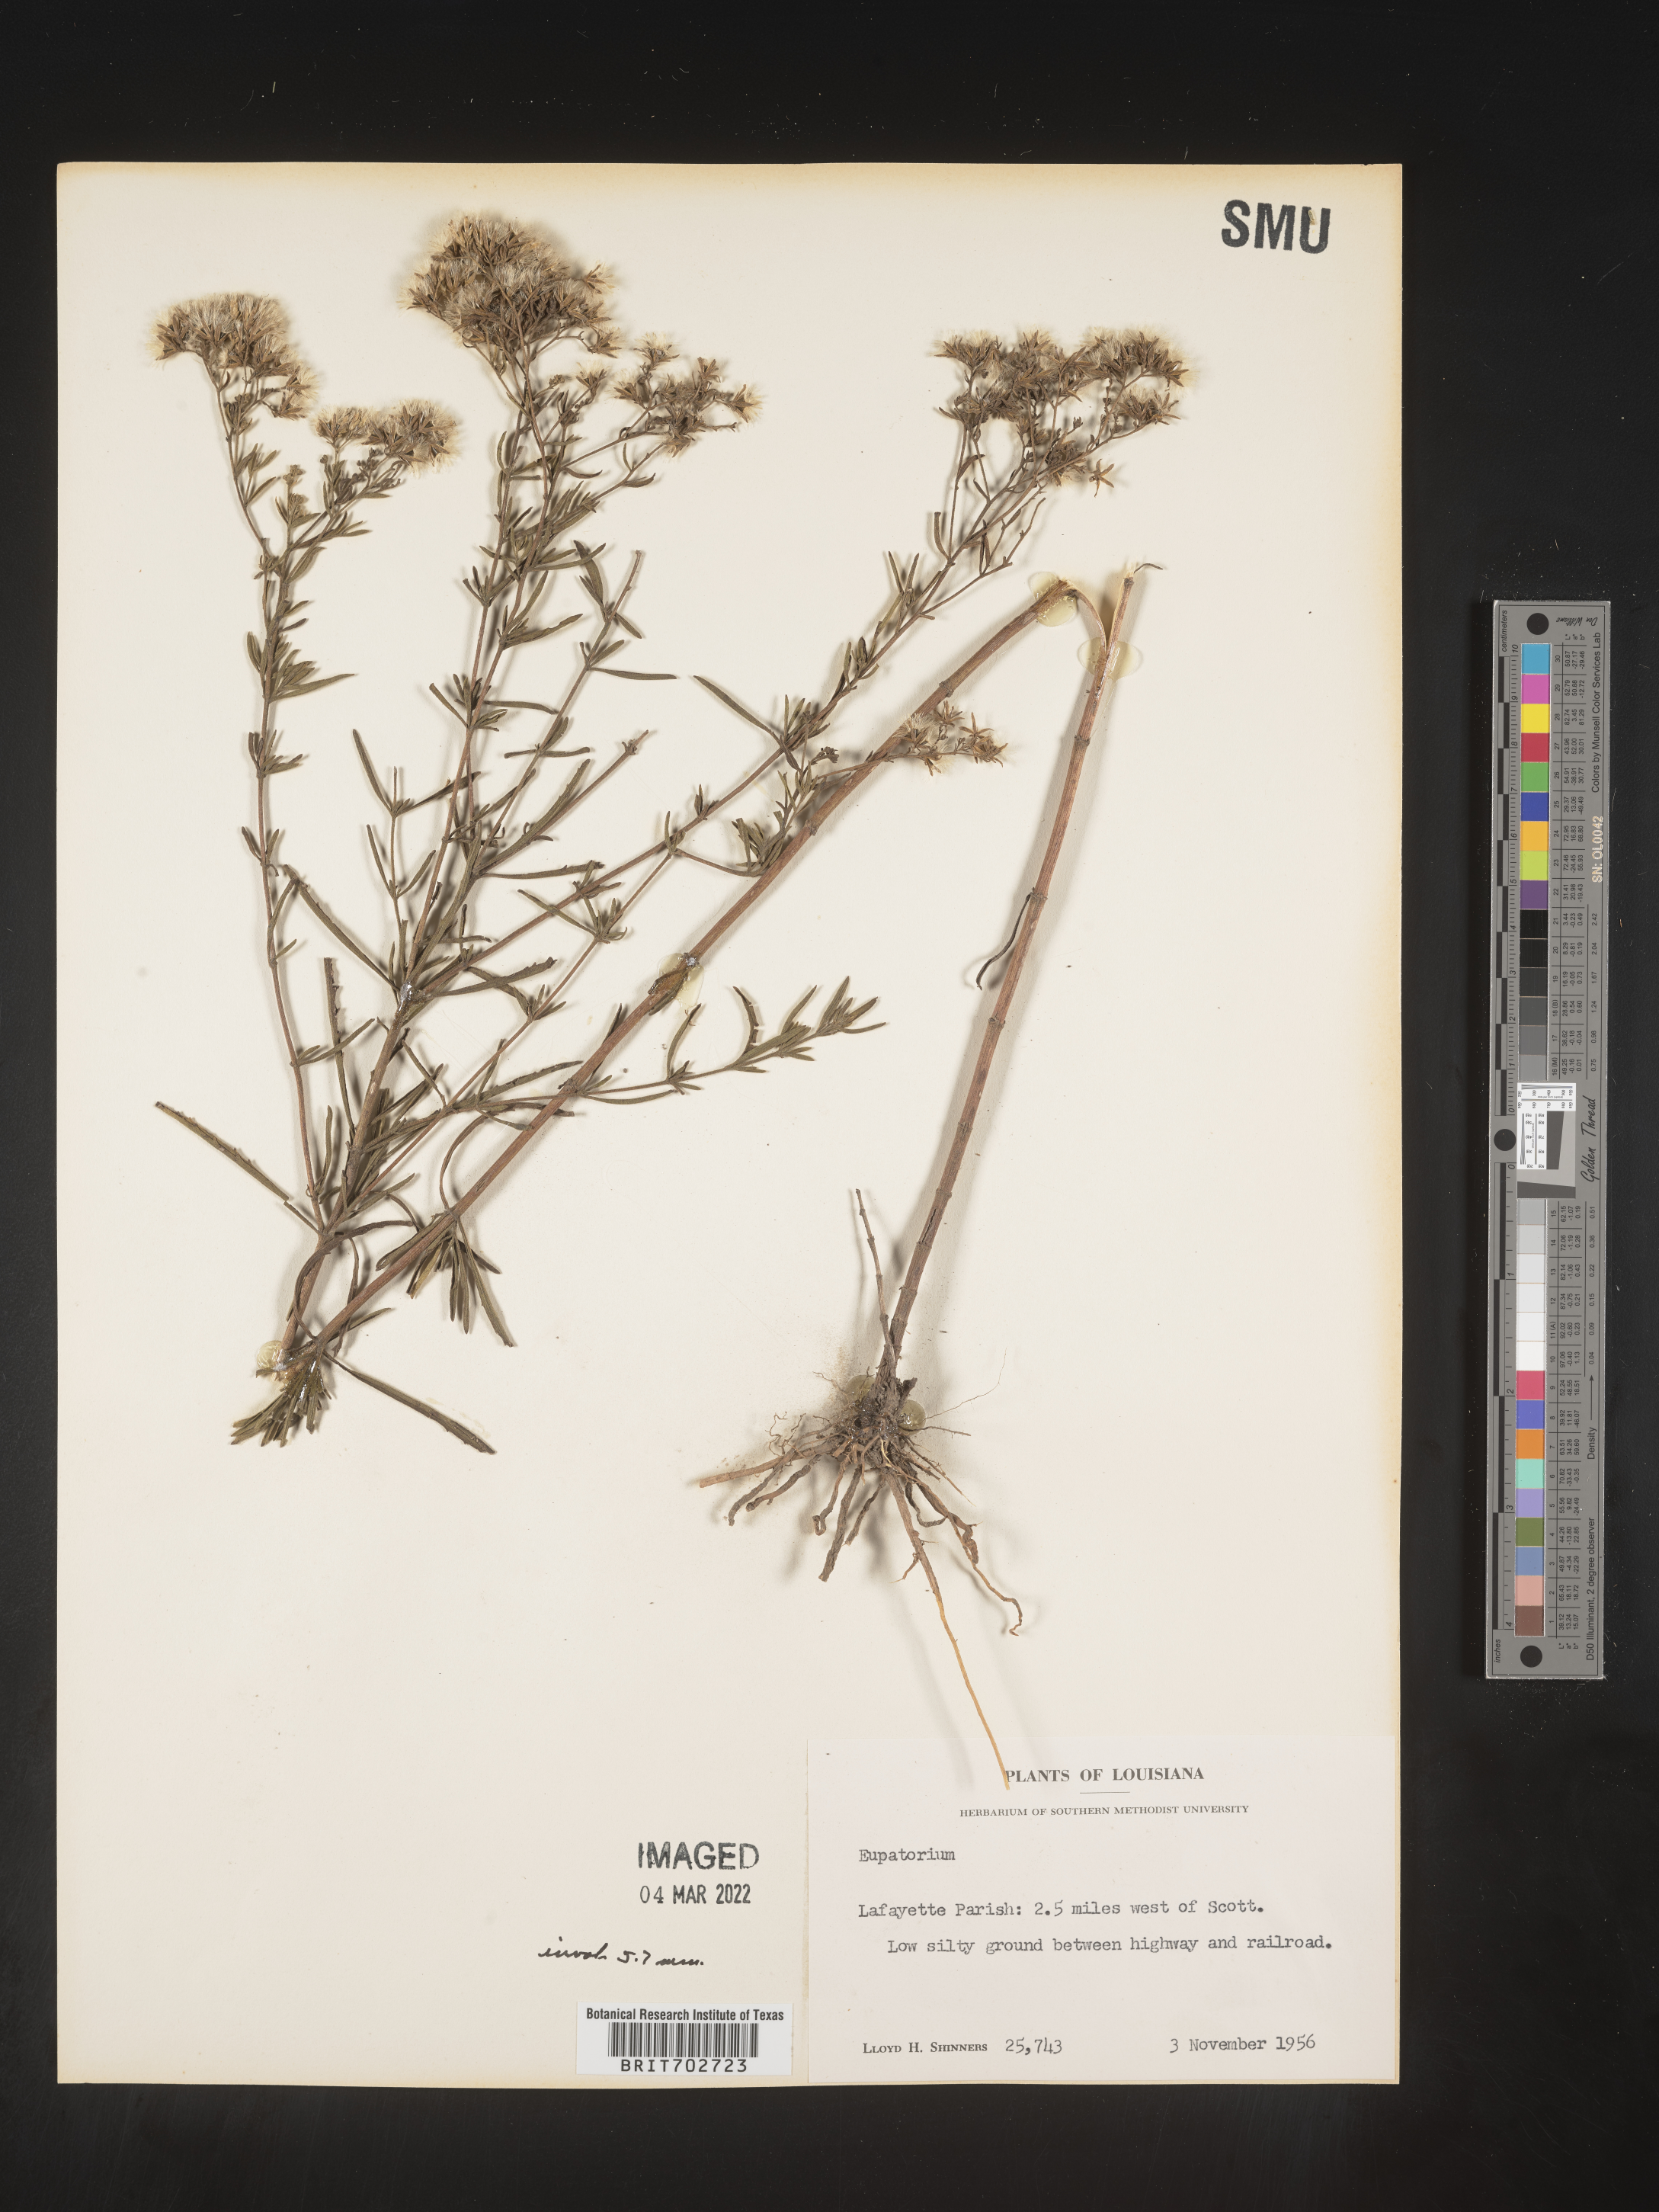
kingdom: Plantae
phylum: Tracheophyta
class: Magnoliopsida
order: Asterales
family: Asteraceae
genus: Eupatorium
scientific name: Eupatorium
